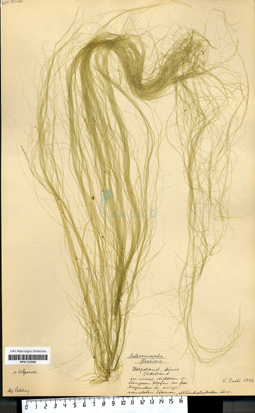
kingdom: Plantae
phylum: Chlorophyta
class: Ulvophyceae
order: Ulvales
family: Ulvaceae
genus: Ulva
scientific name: Ulva flexuosa
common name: Flexuous gutweed
